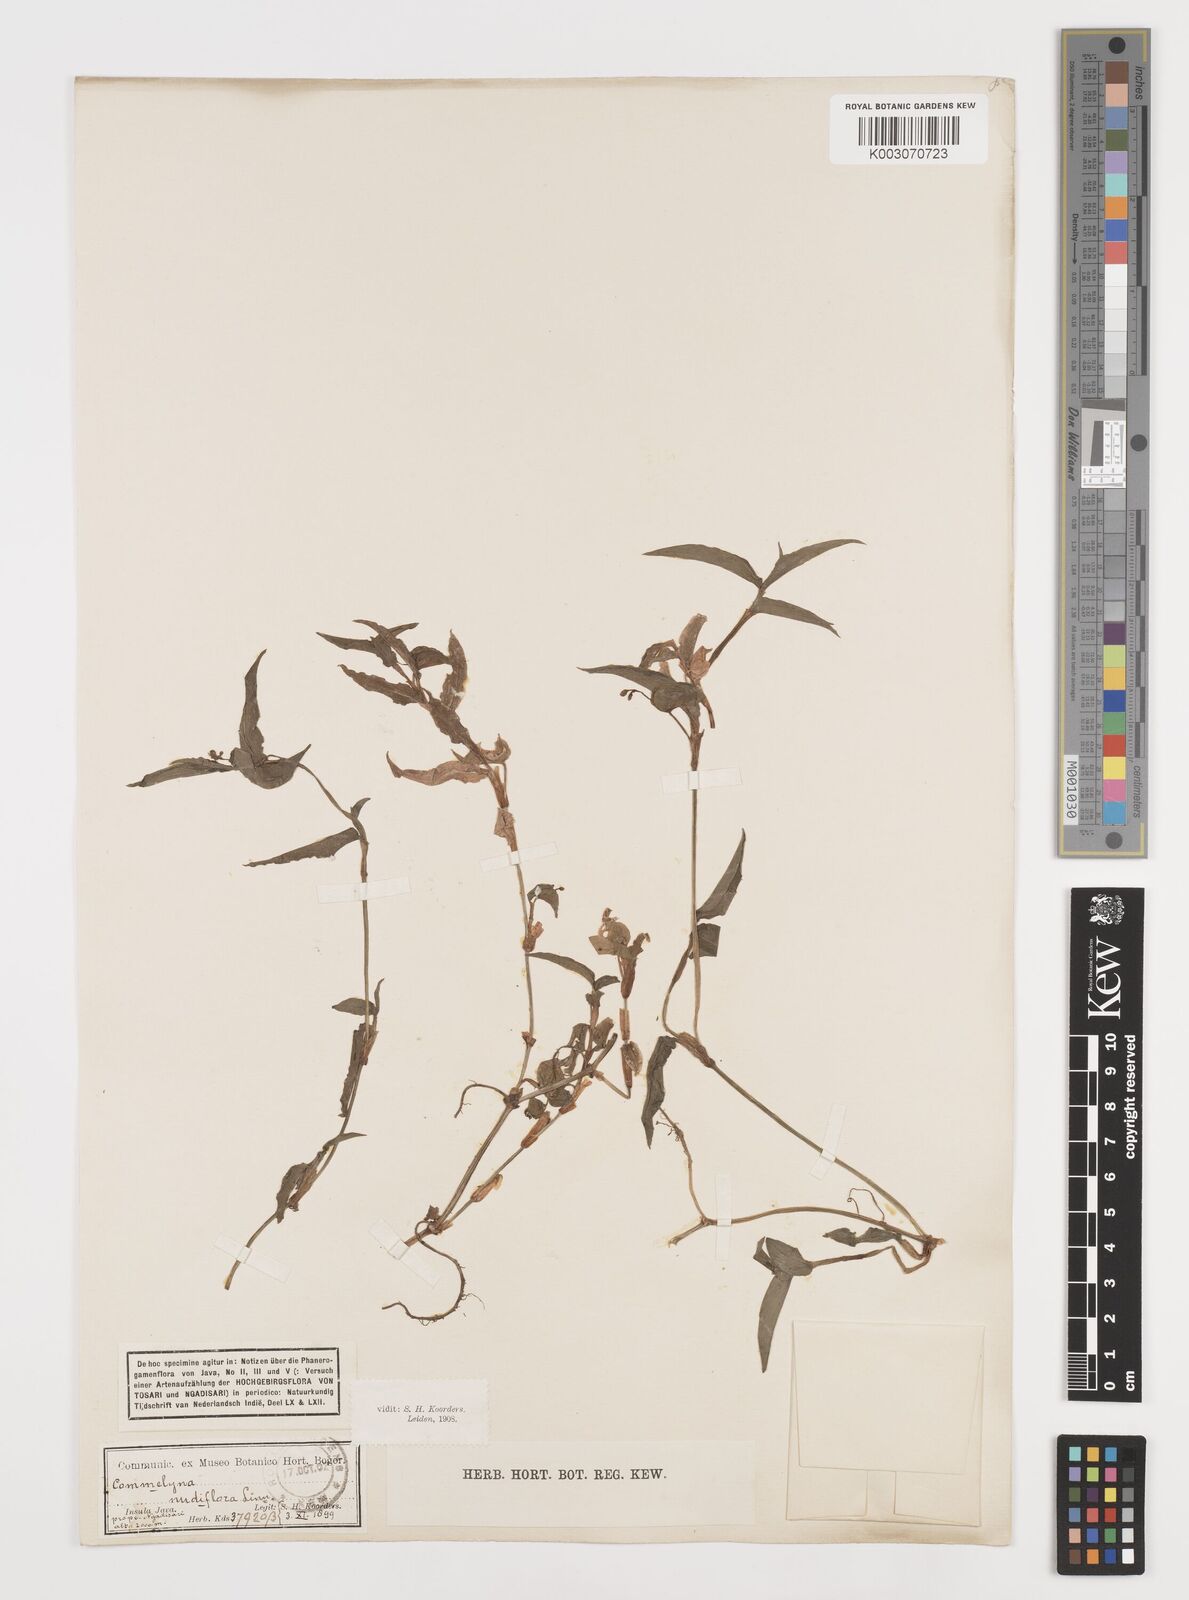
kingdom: Plantae
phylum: Tracheophyta
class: Liliopsida
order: Commelinales
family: Commelinaceae
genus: Commelina
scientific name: Commelina clavata
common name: Willow leaved dayflower
